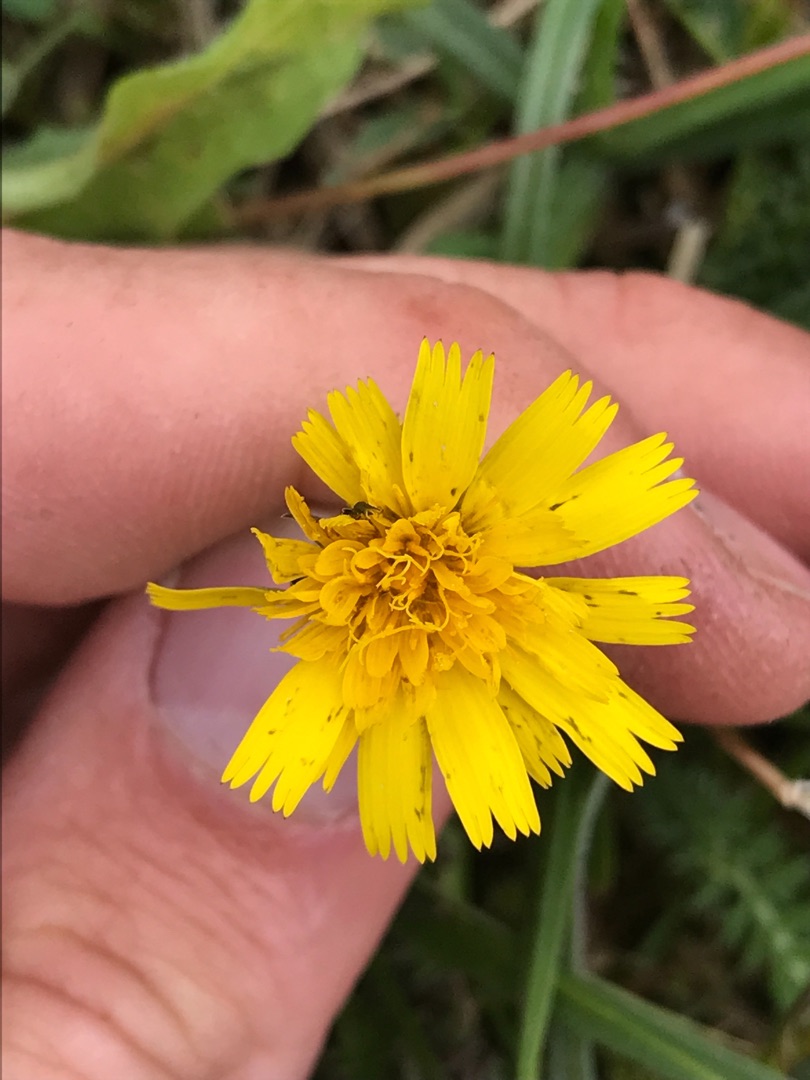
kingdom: Plantae
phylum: Tracheophyta
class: Magnoliopsida
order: Asterales
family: Asteraceae
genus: Thrincia
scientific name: Thrincia saxatilis
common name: Hundesalat
